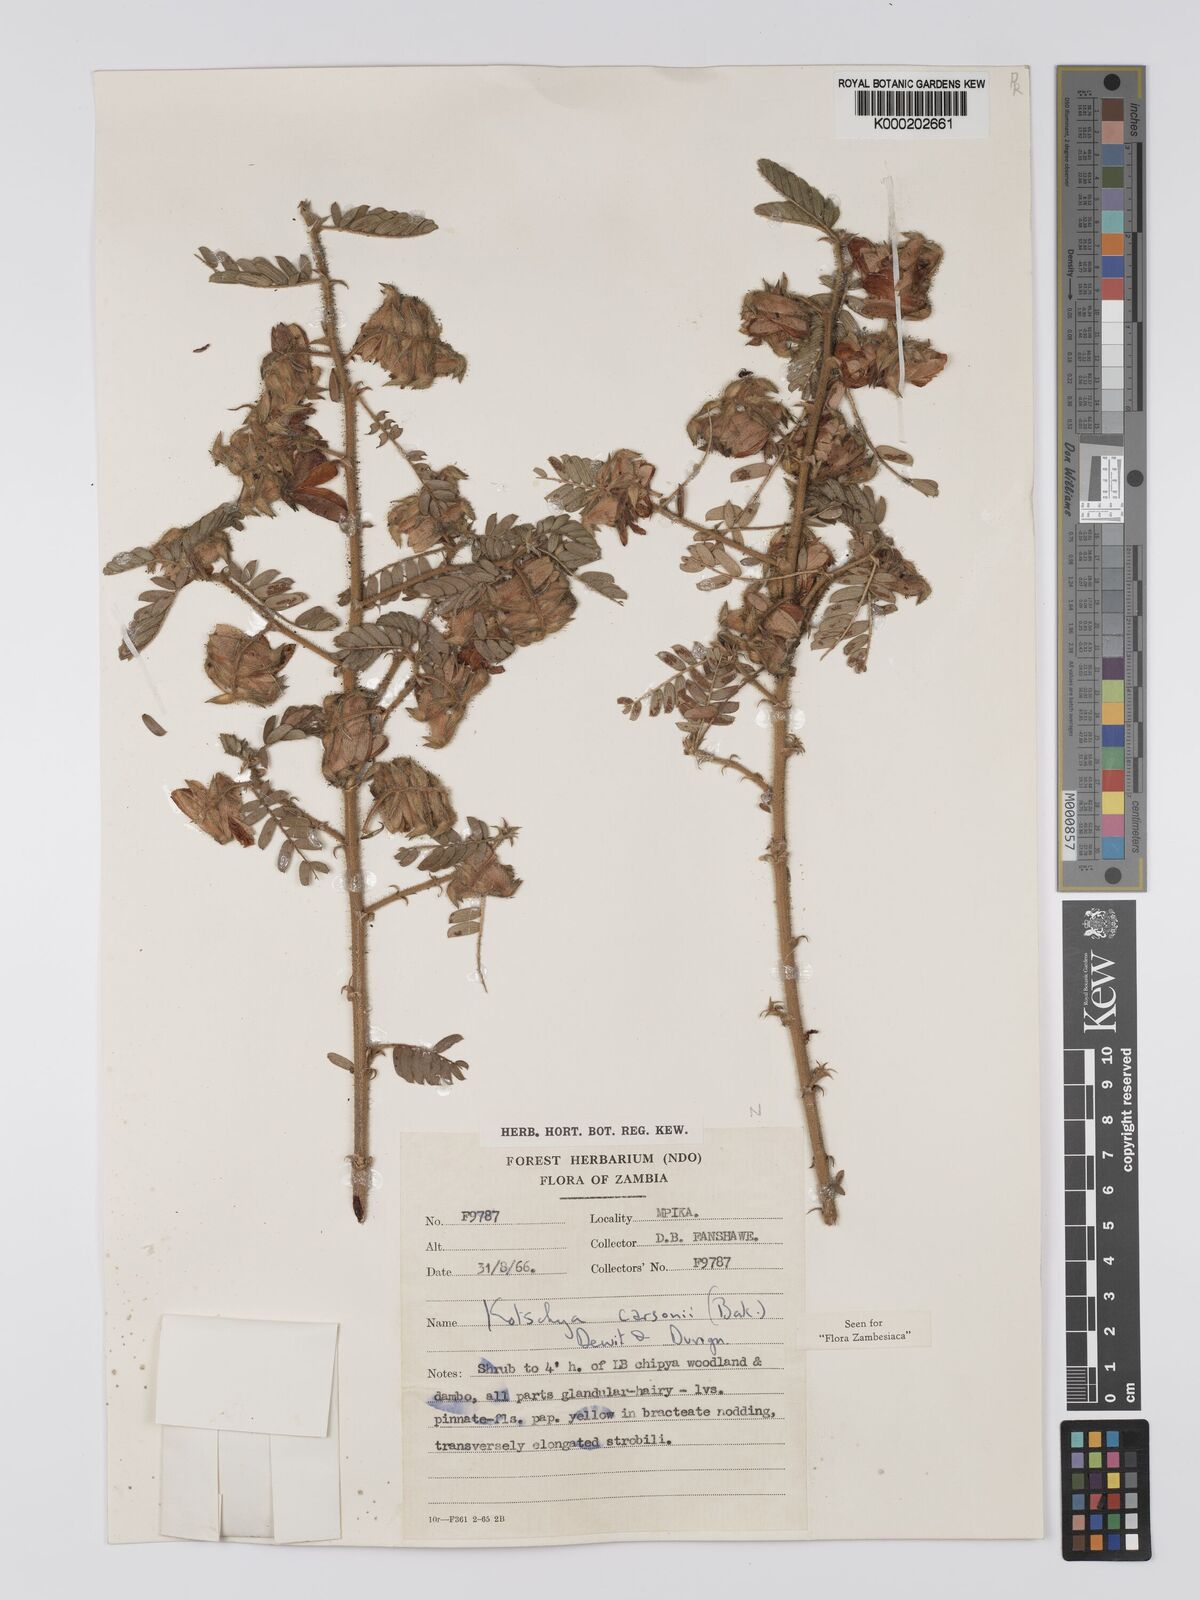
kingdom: Plantae
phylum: Tracheophyta
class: Magnoliopsida
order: Fabales
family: Fabaceae
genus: Kotschya
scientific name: Kotschya carsonii
